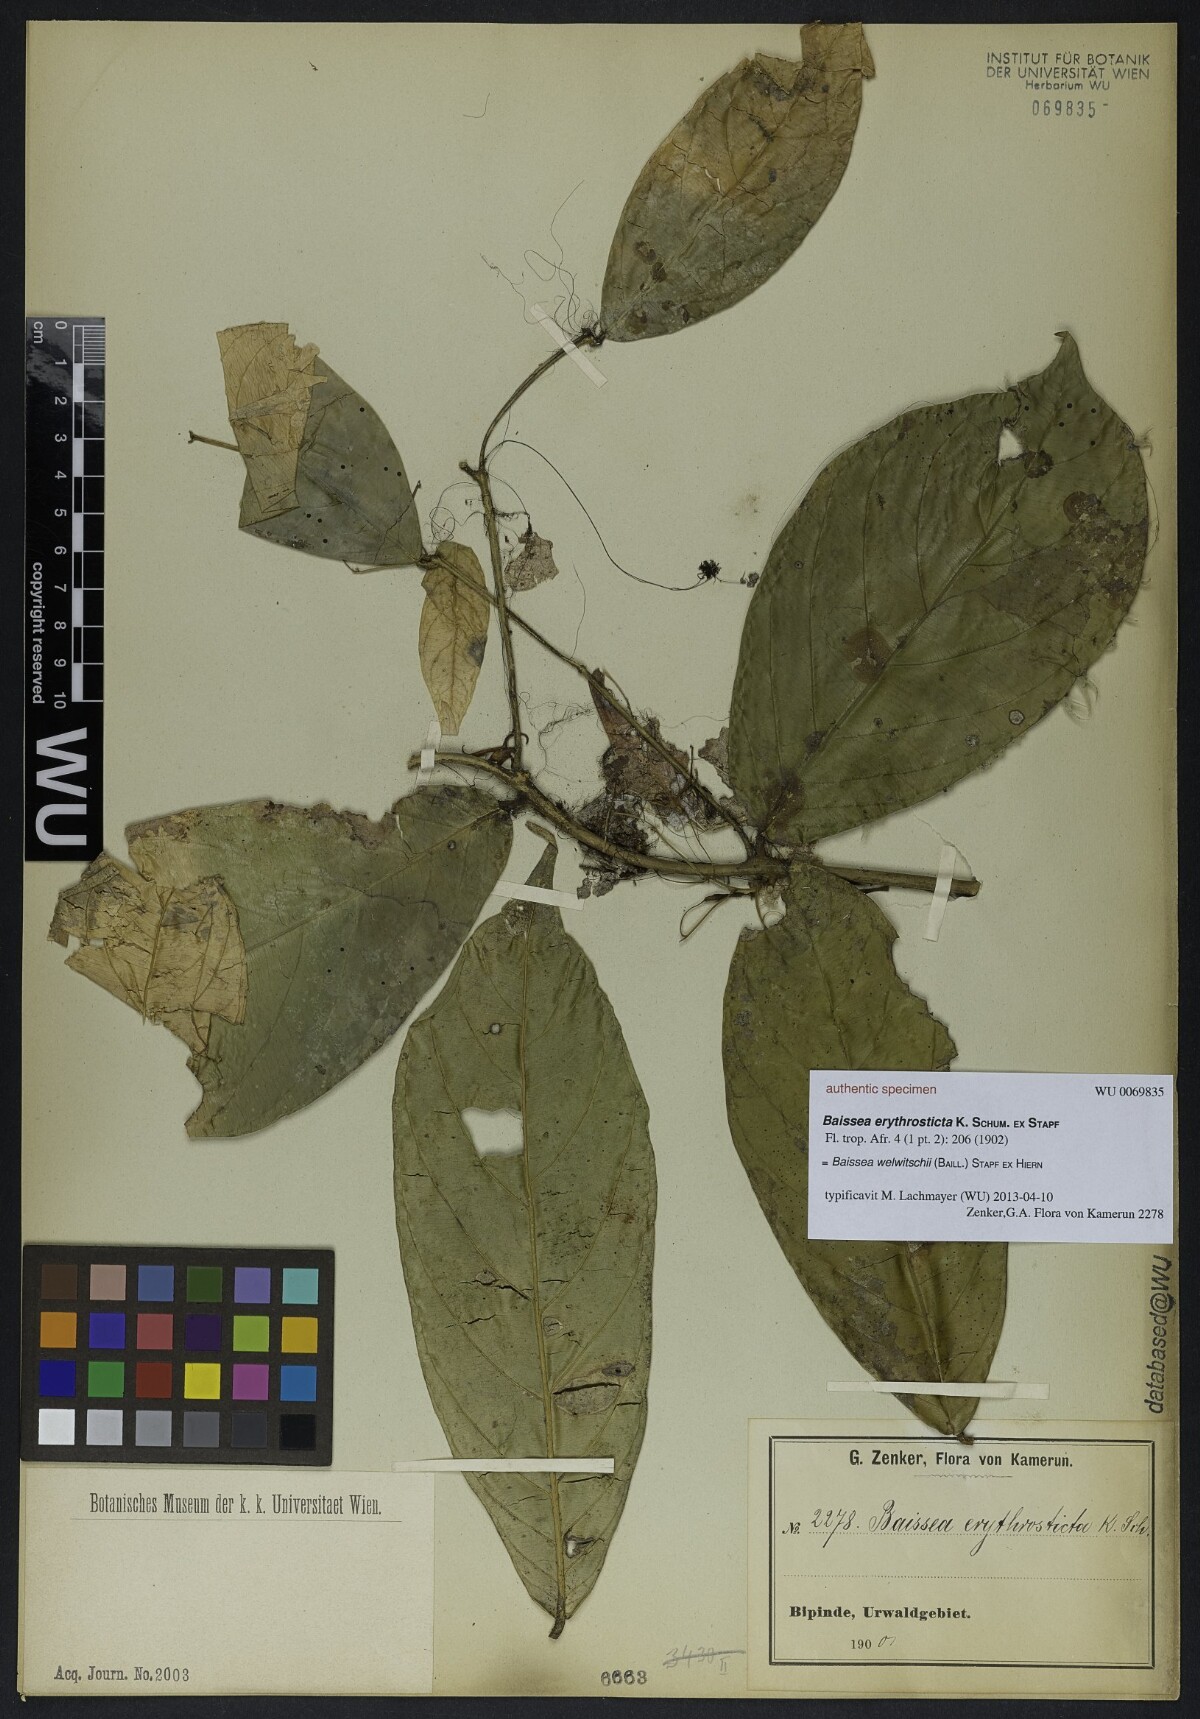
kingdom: Plantae
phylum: Tracheophyta
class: Magnoliopsida
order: Gentianales
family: Apocynaceae
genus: Baissea
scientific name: Baissea welwitschii
